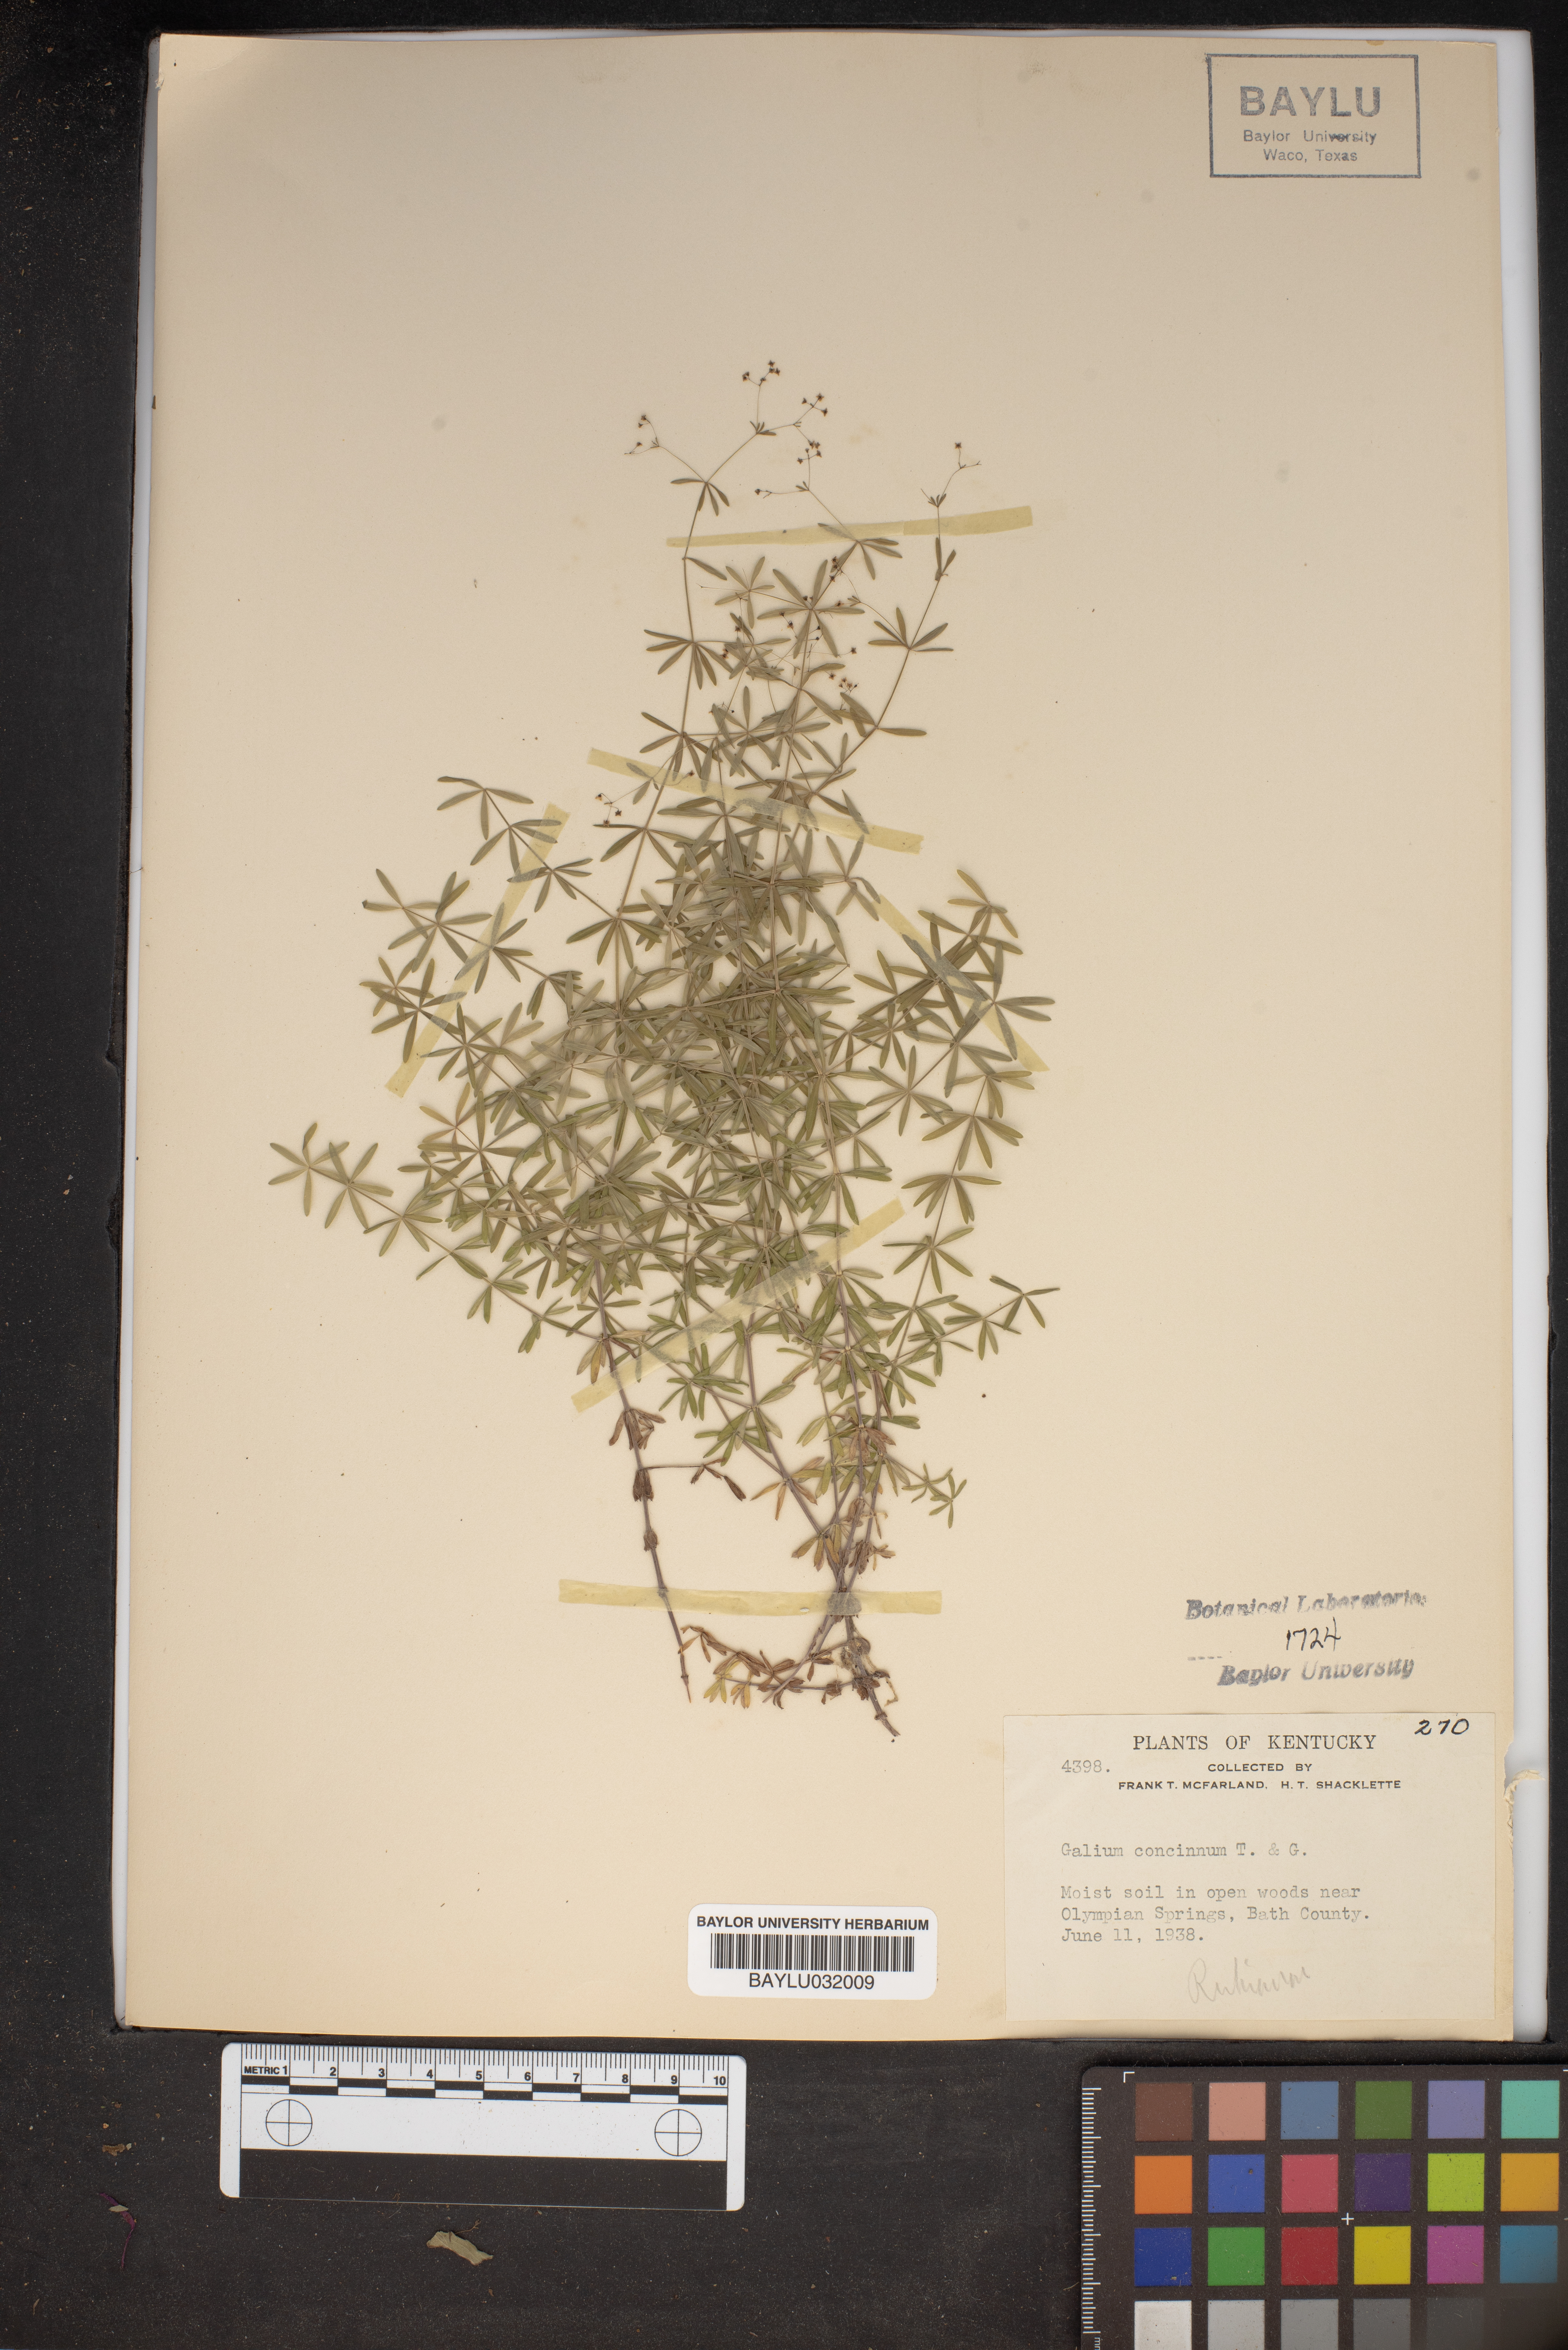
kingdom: Plantae
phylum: Tracheophyta
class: Magnoliopsida
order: Gentianales
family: Rubiaceae
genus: Galium
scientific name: Galium concinnum
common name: Shining bedstraw
